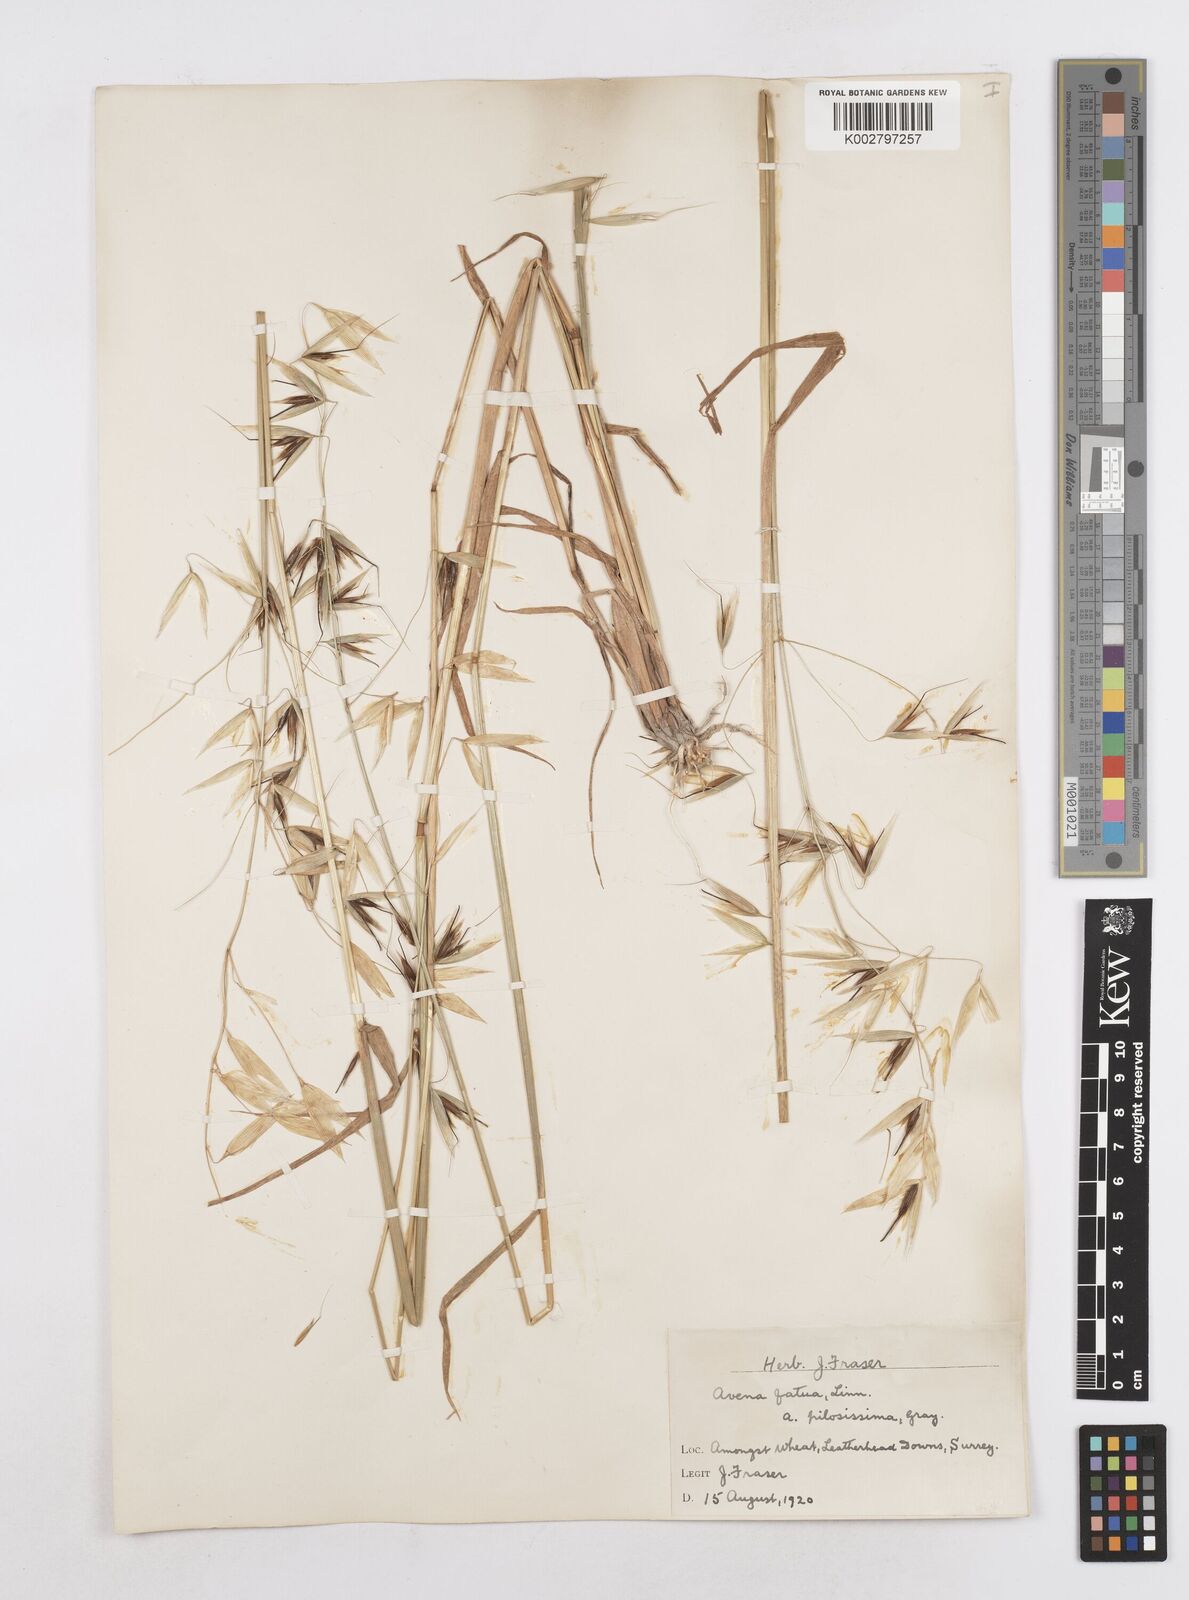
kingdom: Plantae
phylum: Tracheophyta
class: Liliopsida
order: Poales
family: Poaceae
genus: Avena
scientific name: Avena fatua
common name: Wild oat
